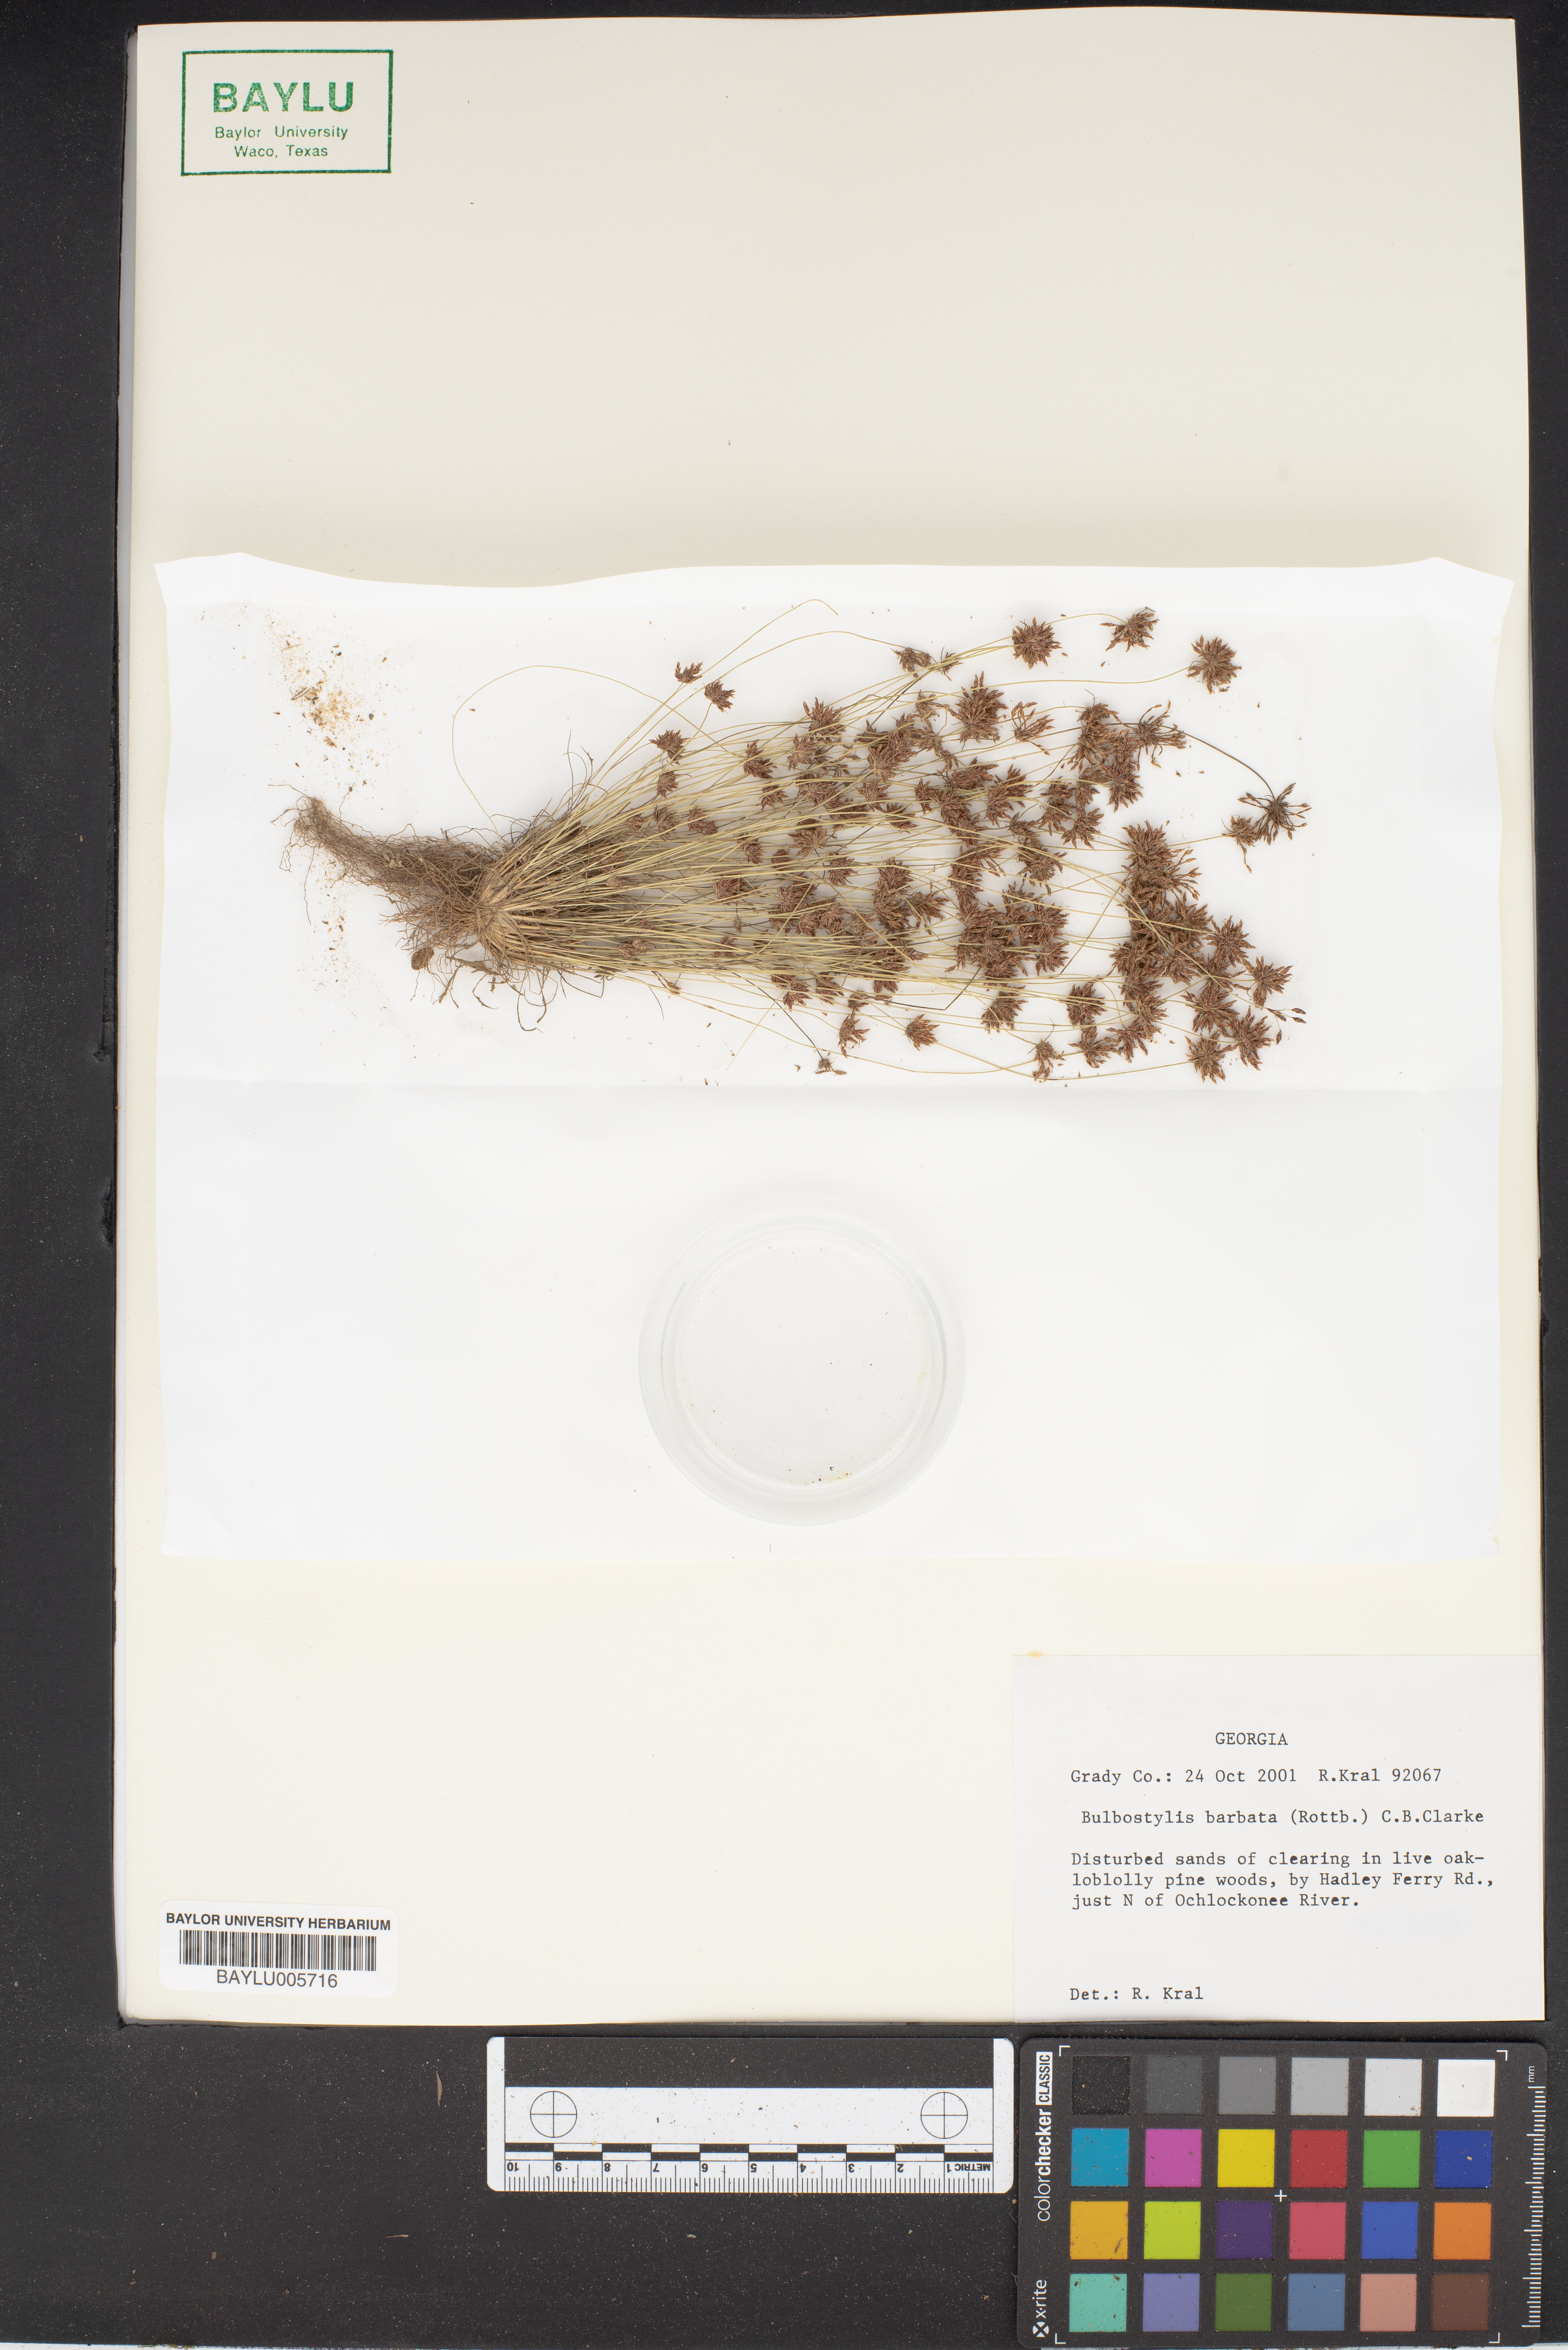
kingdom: Plantae
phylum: Tracheophyta
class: Liliopsida
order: Poales
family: Cyperaceae
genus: Bulbostylis
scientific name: Bulbostylis barbata
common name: Watergrass
